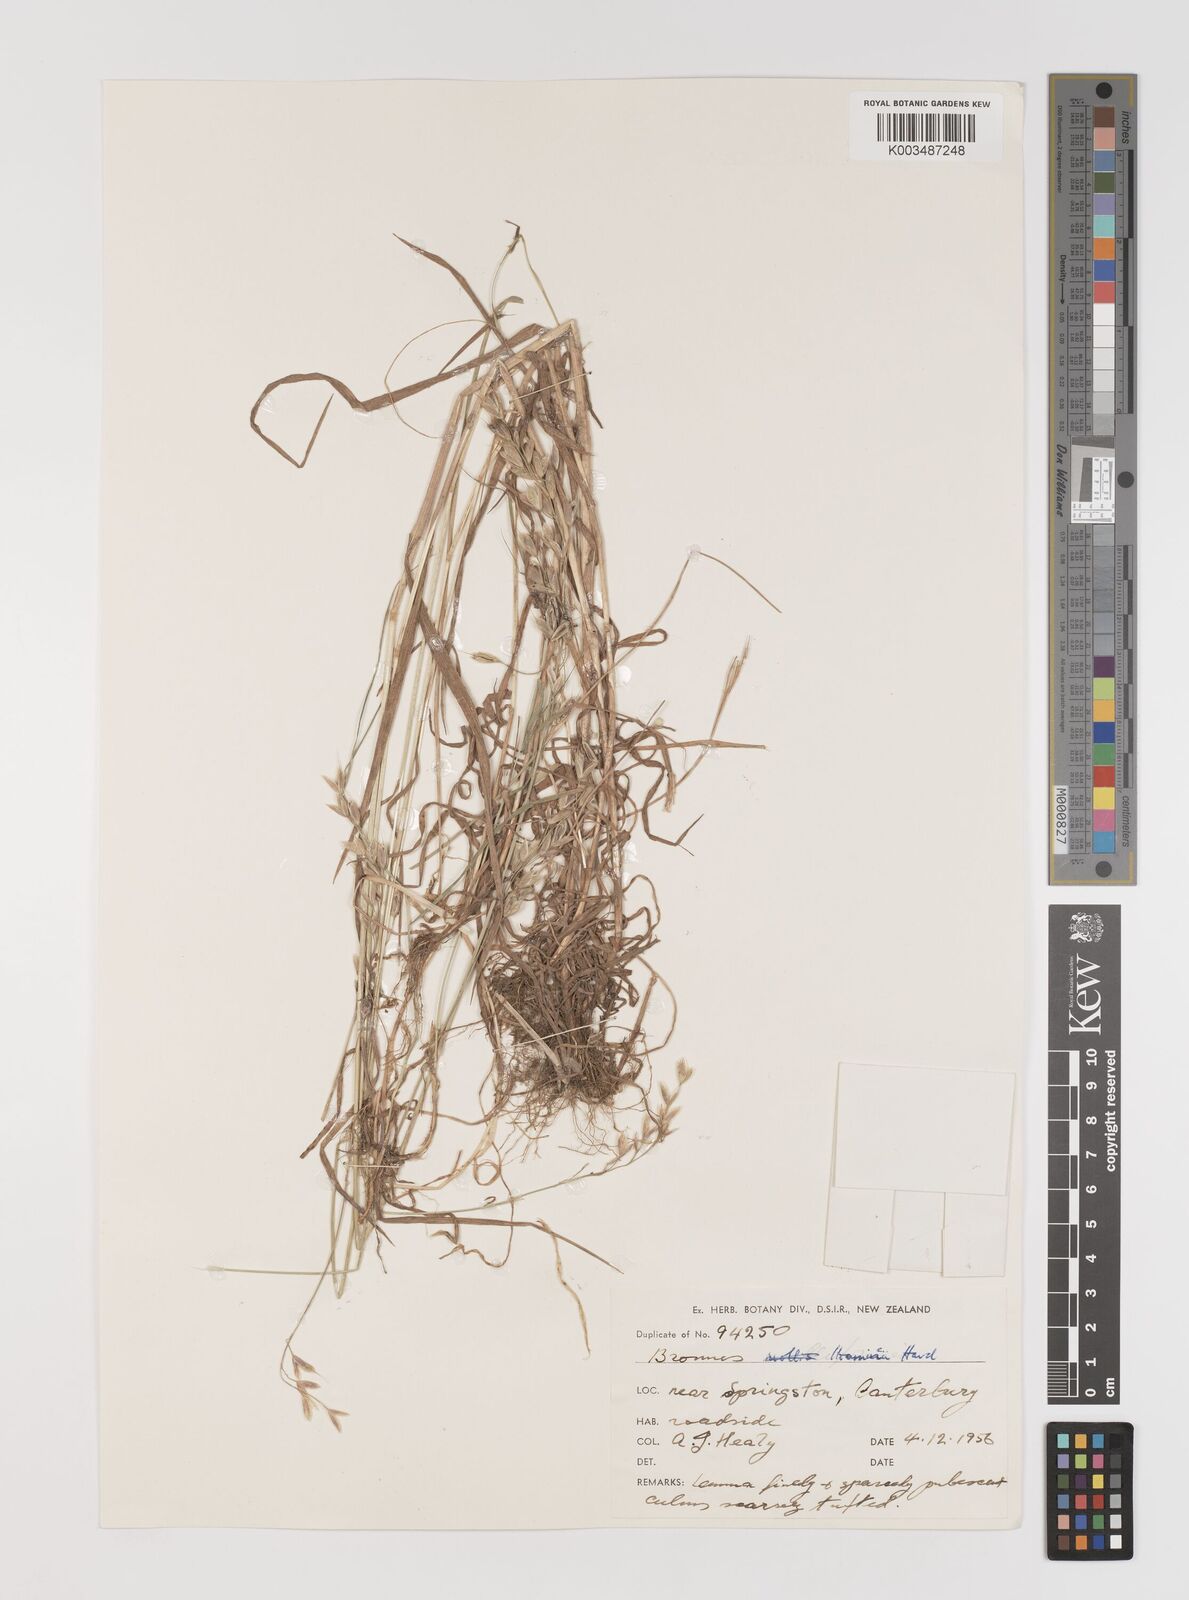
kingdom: Plantae
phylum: Tracheophyta
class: Liliopsida
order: Poales
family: Poaceae
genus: Bromus
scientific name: Bromus hordeaceus
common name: Soft brome
